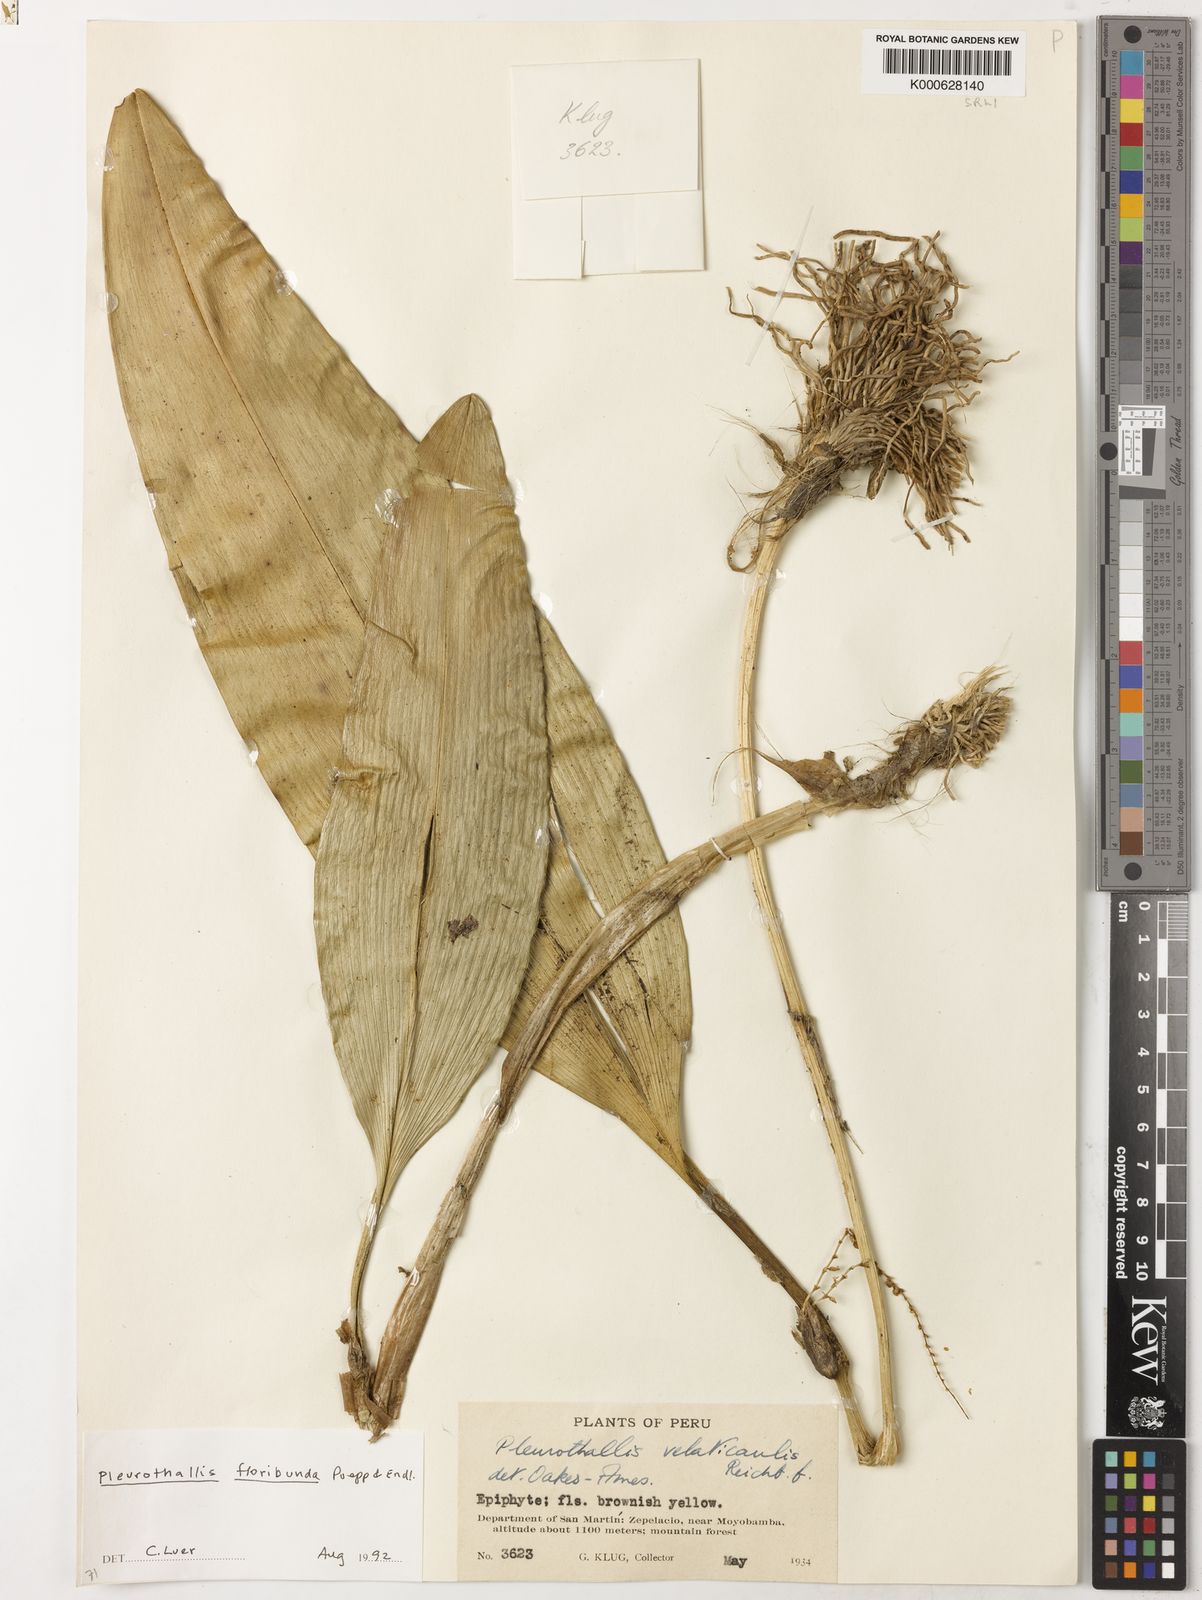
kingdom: Plantae
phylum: Tracheophyta
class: Liliopsida
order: Asparagales
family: Orchidaceae
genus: Pleurothallis
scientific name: Pleurothallis
